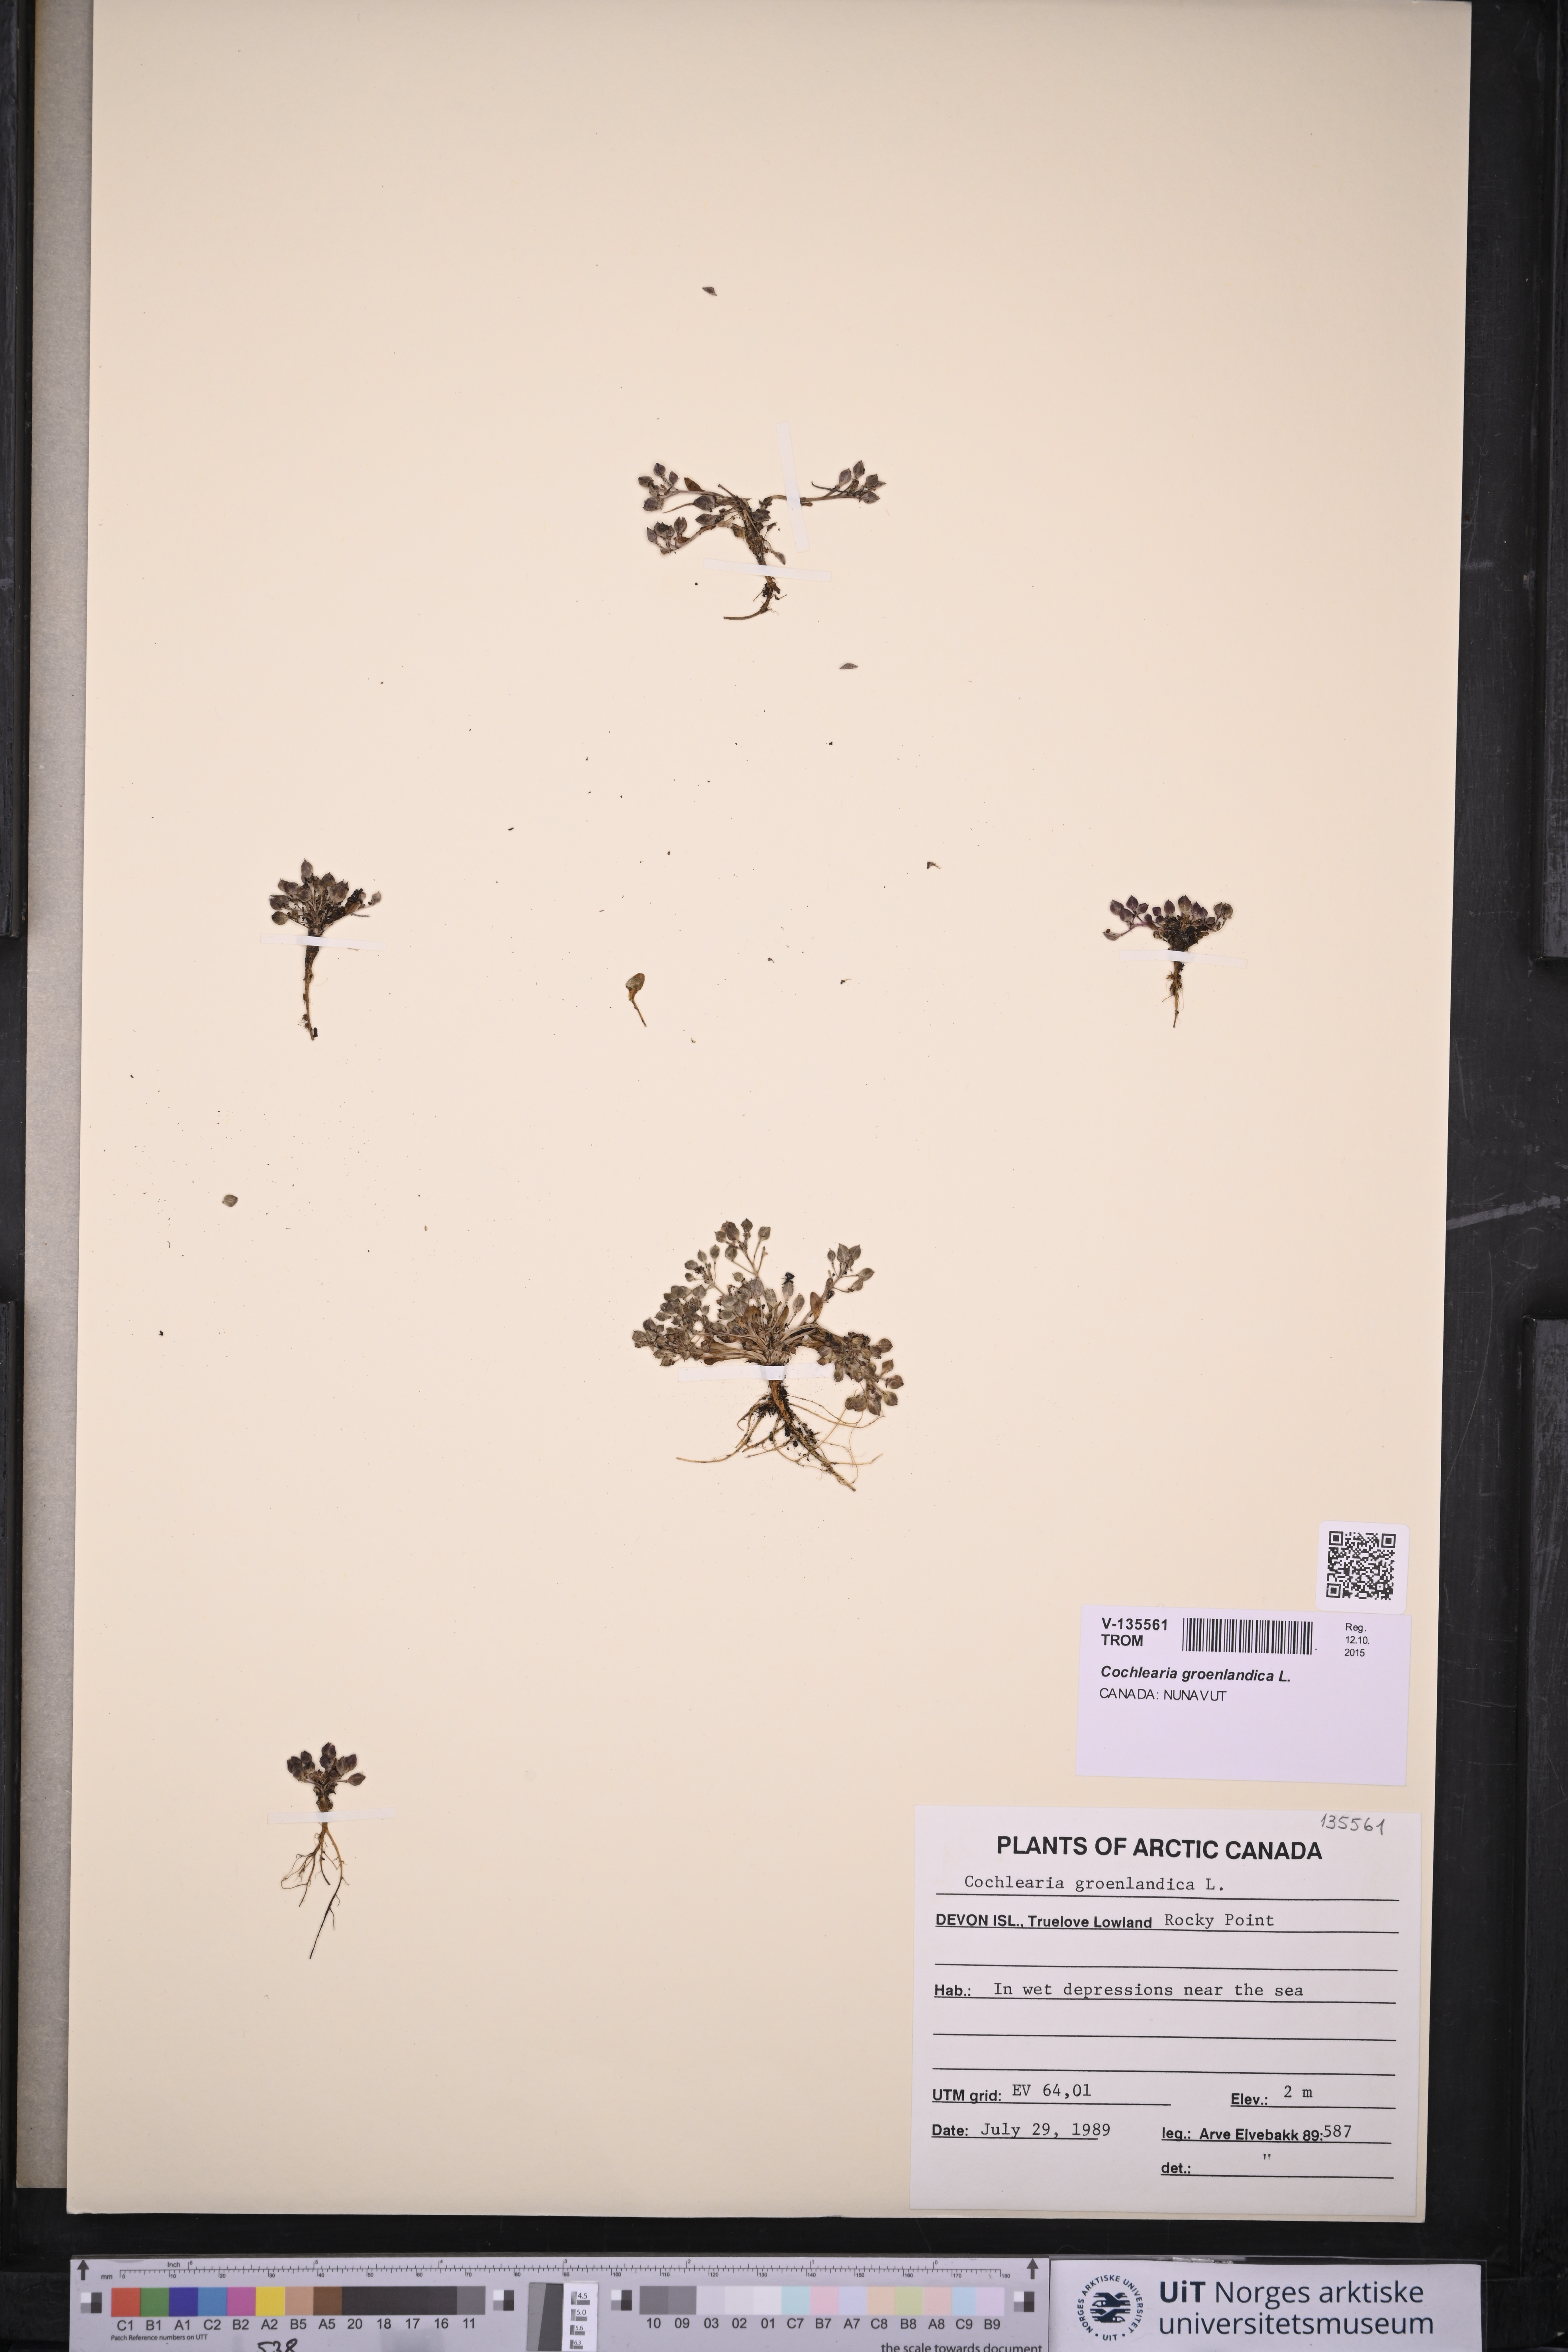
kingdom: Plantae
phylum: Tracheophyta
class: Magnoliopsida
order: Brassicales
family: Brassicaceae
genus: Cochlearia
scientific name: Cochlearia groenlandica
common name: Danish scurvygrass
